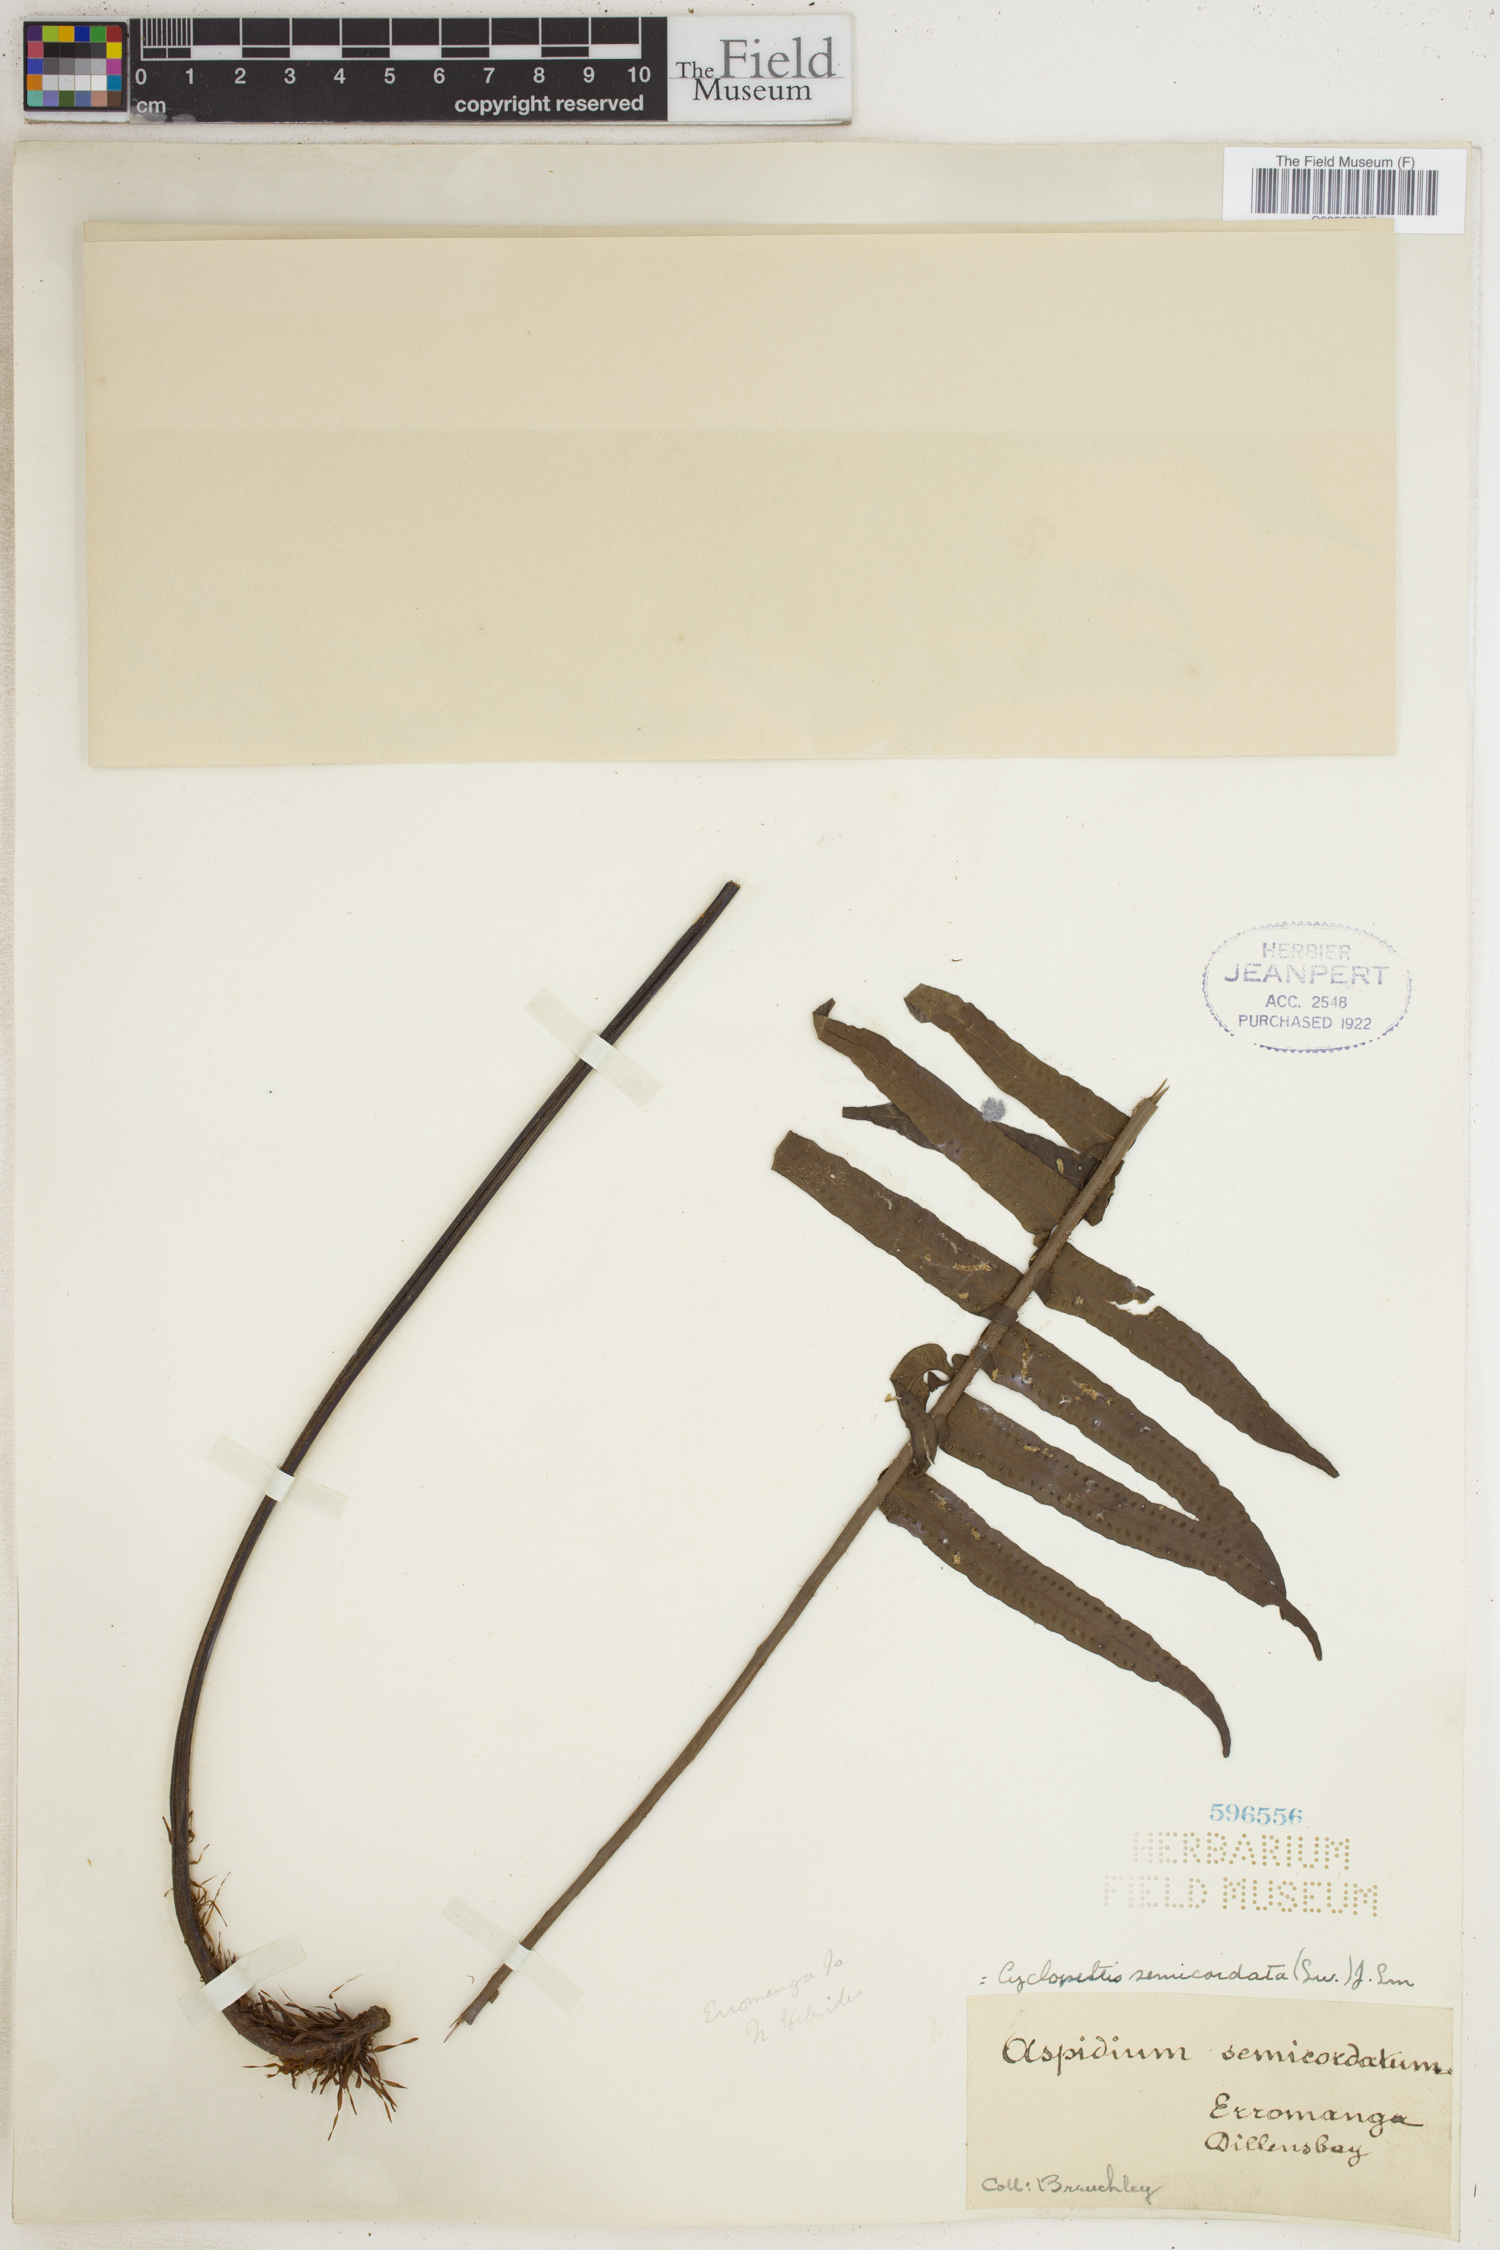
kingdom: Plantae
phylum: Tracheophyta
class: Polypodiopsida
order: Polypodiales
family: Lomariopsidaceae
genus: Cyclopeltis
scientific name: Cyclopeltis semicordata
